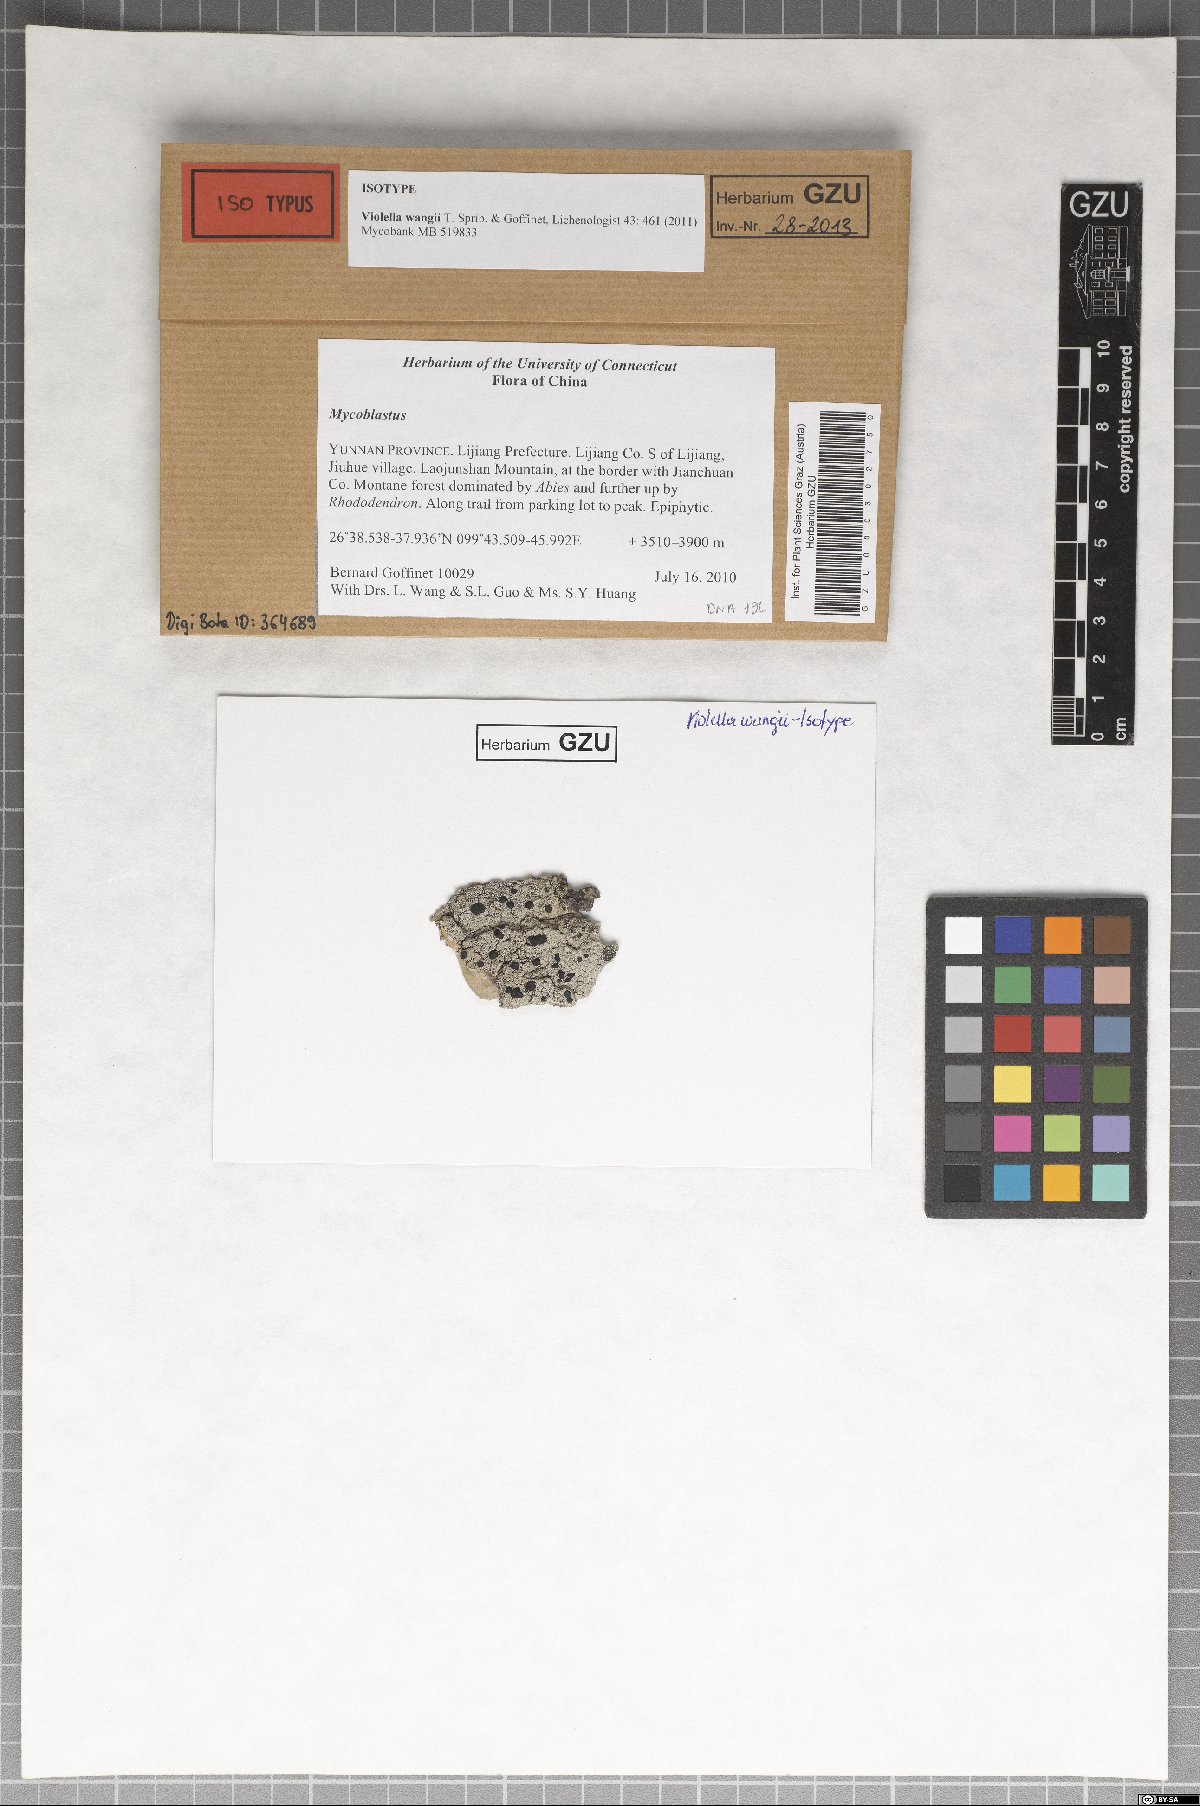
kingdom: Fungi
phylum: Ascomycota
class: Lecanoromycetes
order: Lecanorales
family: Tephromelataceae
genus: Violella
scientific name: Violella wangii
